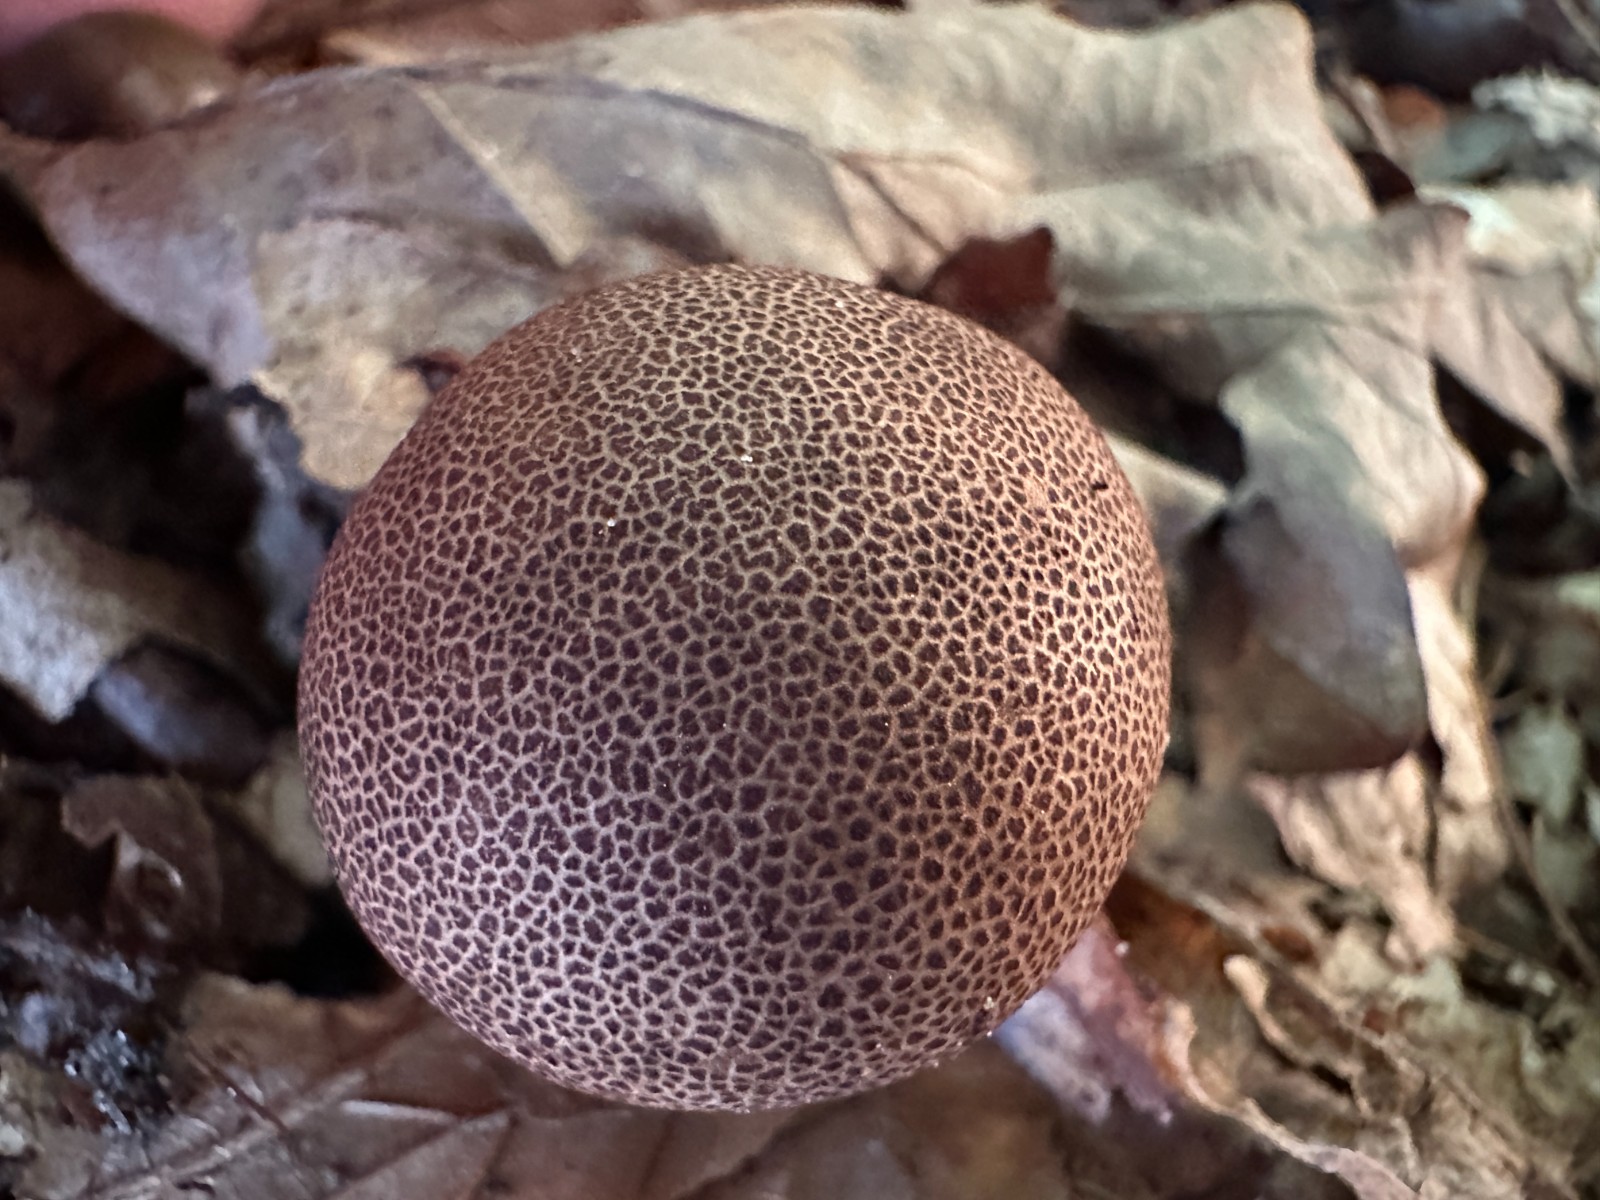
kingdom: Fungi
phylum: Basidiomycota
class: Agaricomycetes
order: Boletales
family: Sclerodermataceae
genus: Scleroderma
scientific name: Scleroderma areolatum
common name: plettet bruskbold
